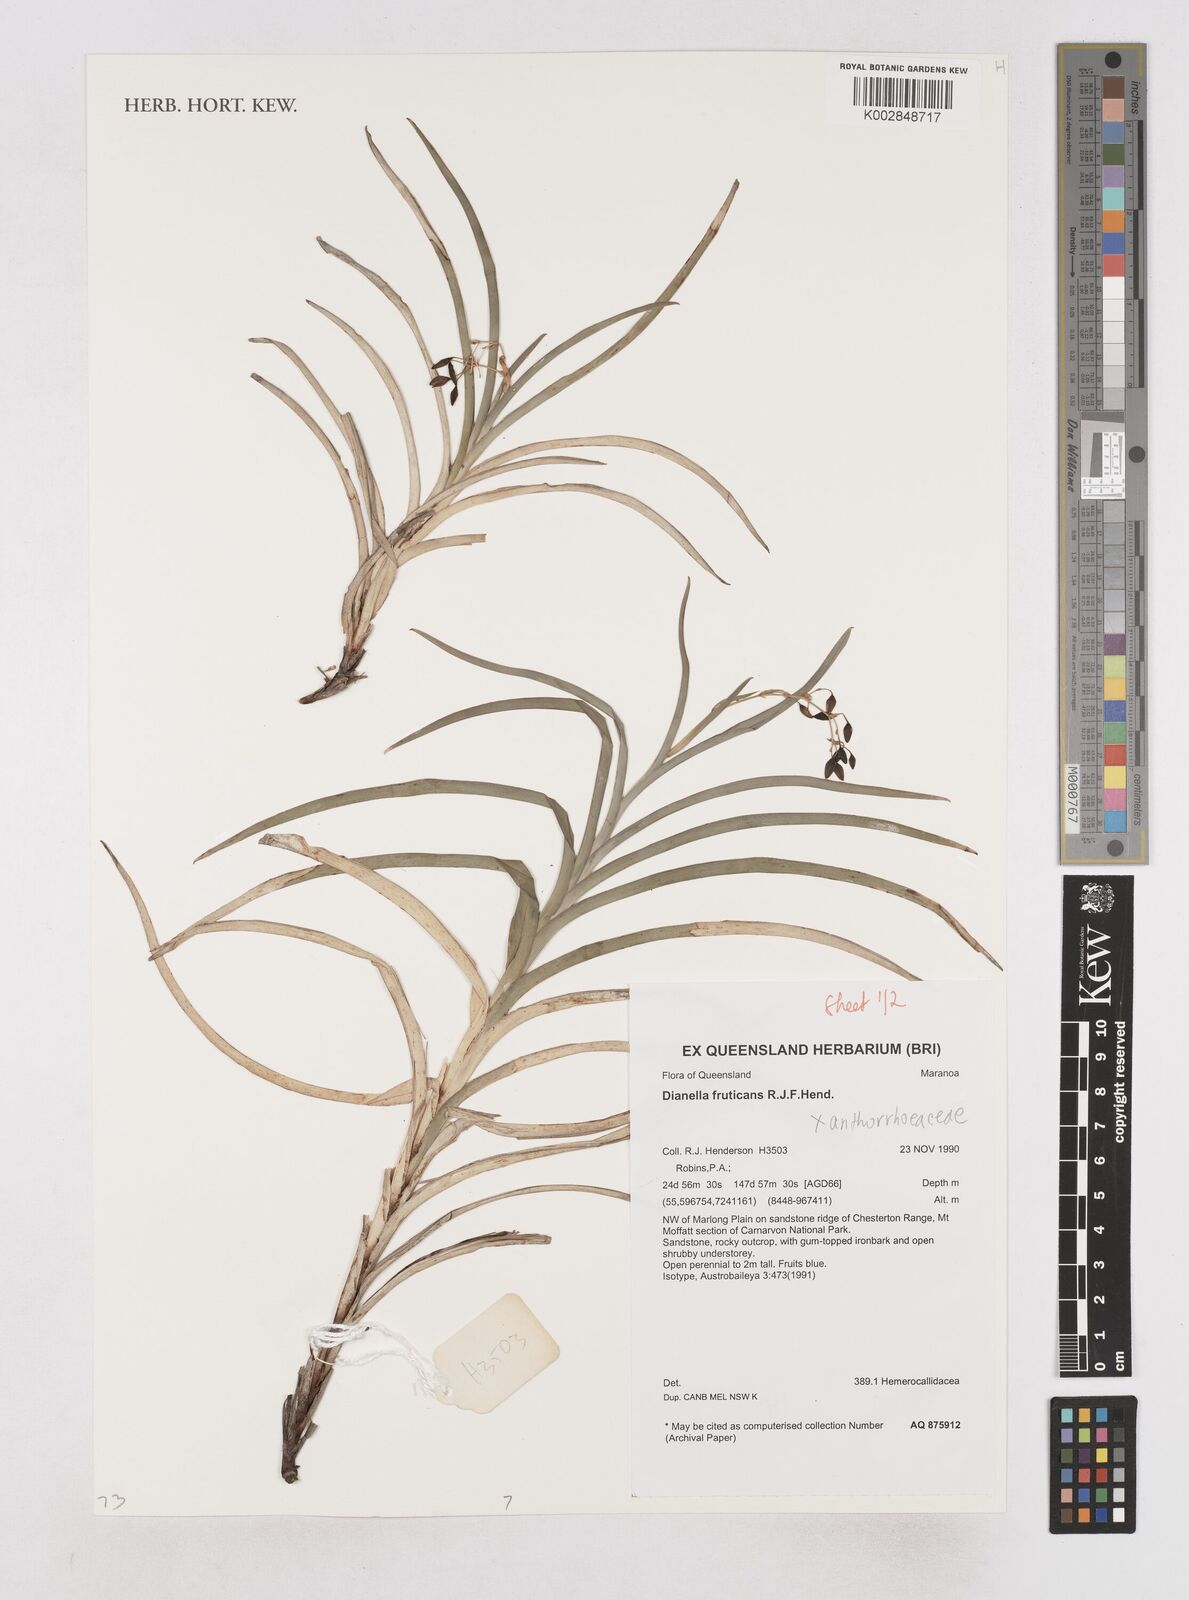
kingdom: Plantae
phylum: Tracheophyta
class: Liliopsida
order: Asparagales
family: Asphodelaceae
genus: Dianella
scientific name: Dianella fruticans
